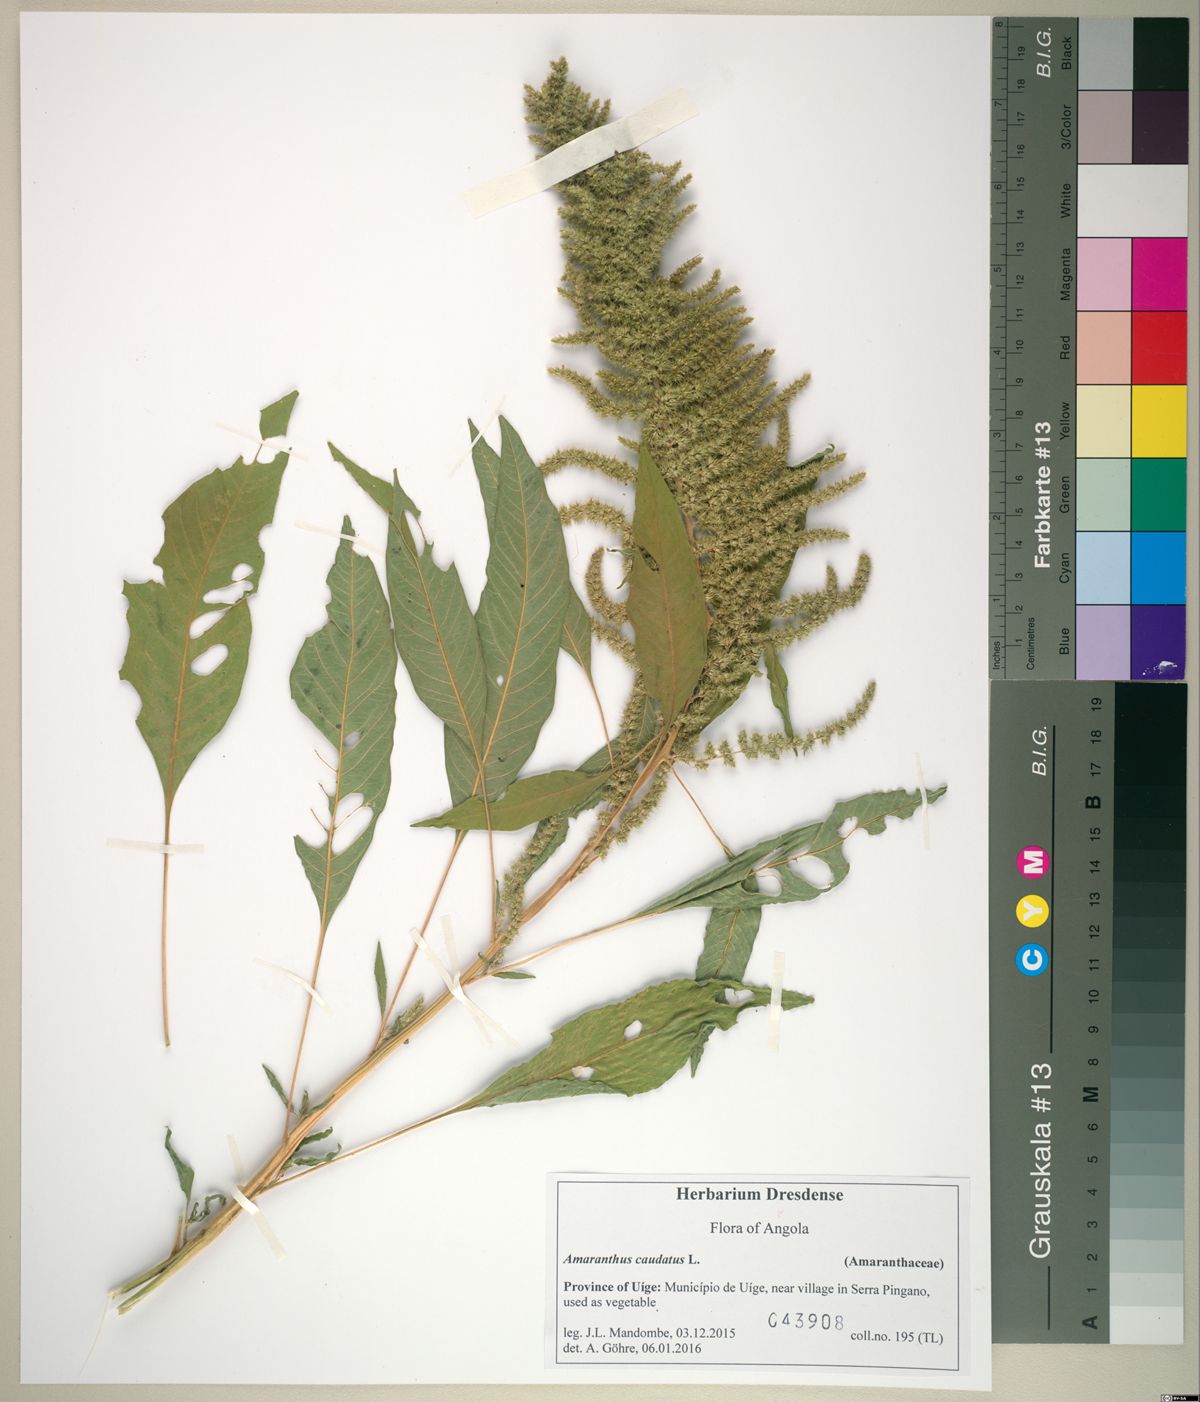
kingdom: Plantae
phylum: Tracheophyta
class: Magnoliopsida
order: Caryophyllales
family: Amaranthaceae
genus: Amaranthus
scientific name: Amaranthus caudatus
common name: Love-lies-bleeding
